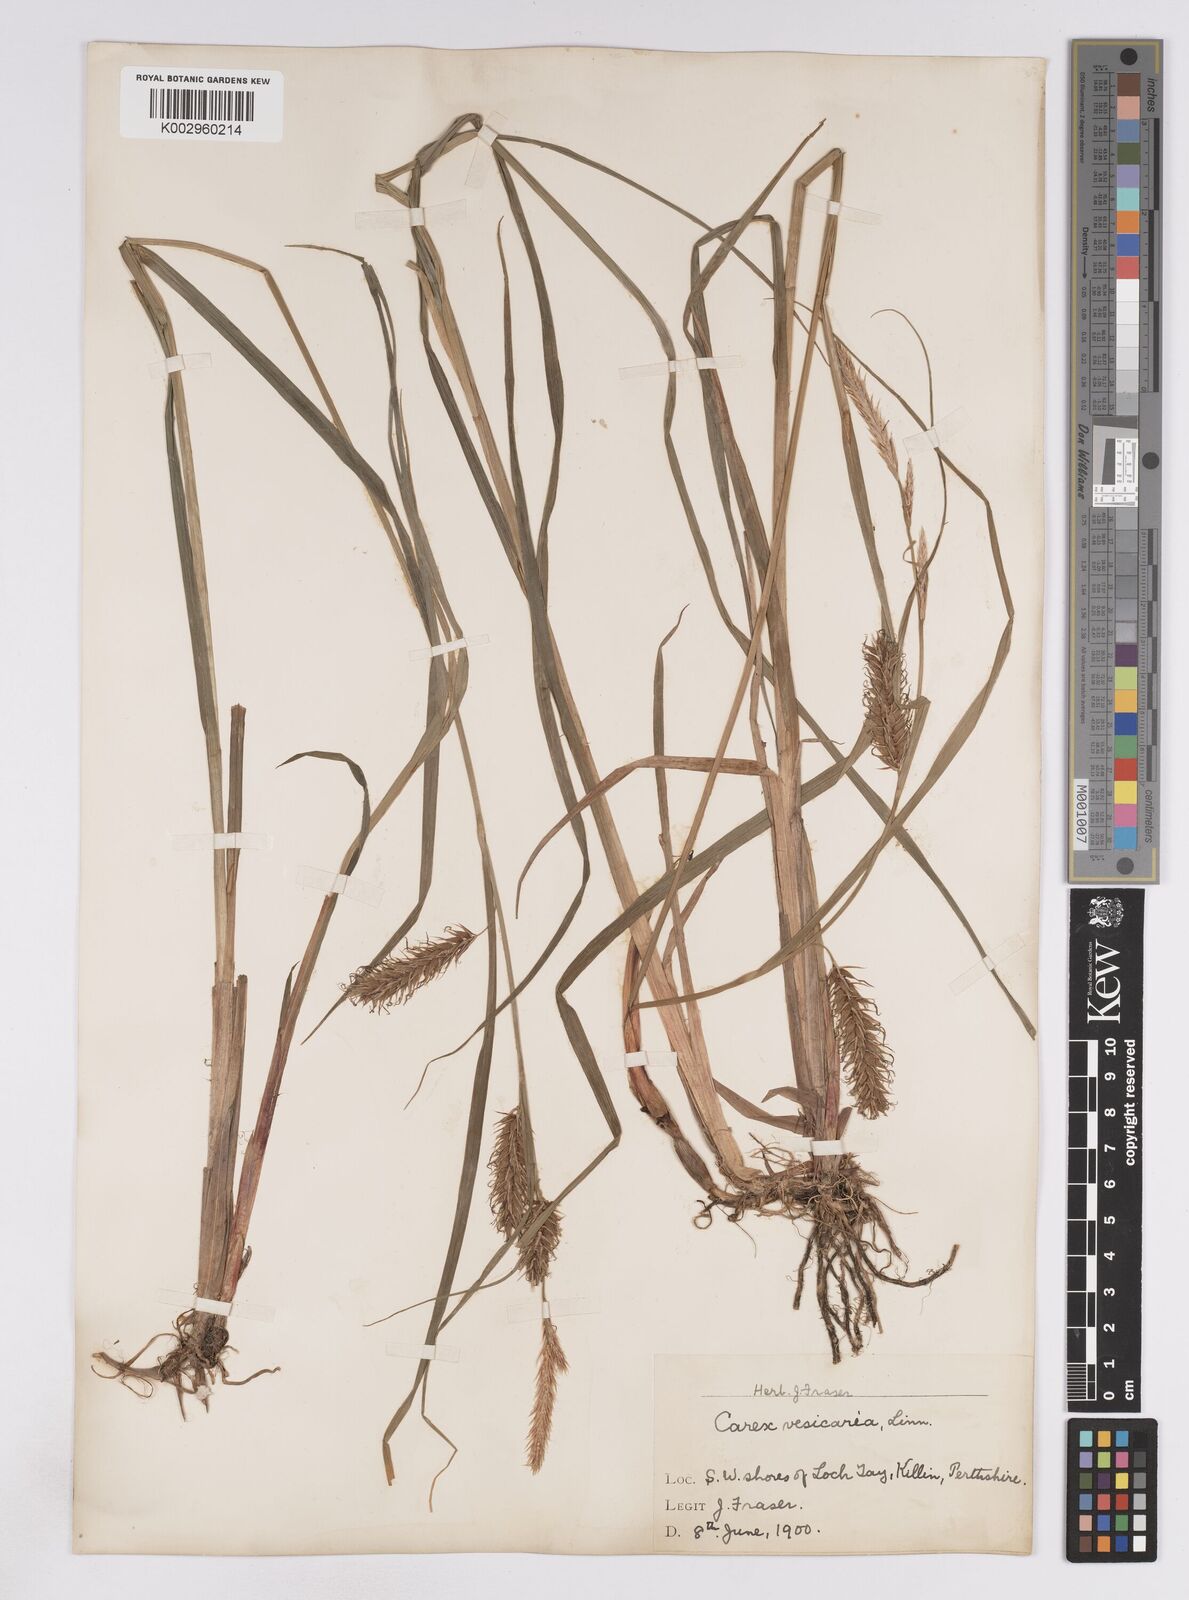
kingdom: Plantae
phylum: Tracheophyta
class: Liliopsida
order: Poales
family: Cyperaceae
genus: Carex
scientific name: Carex vesicaria
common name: Bladder-sedge
